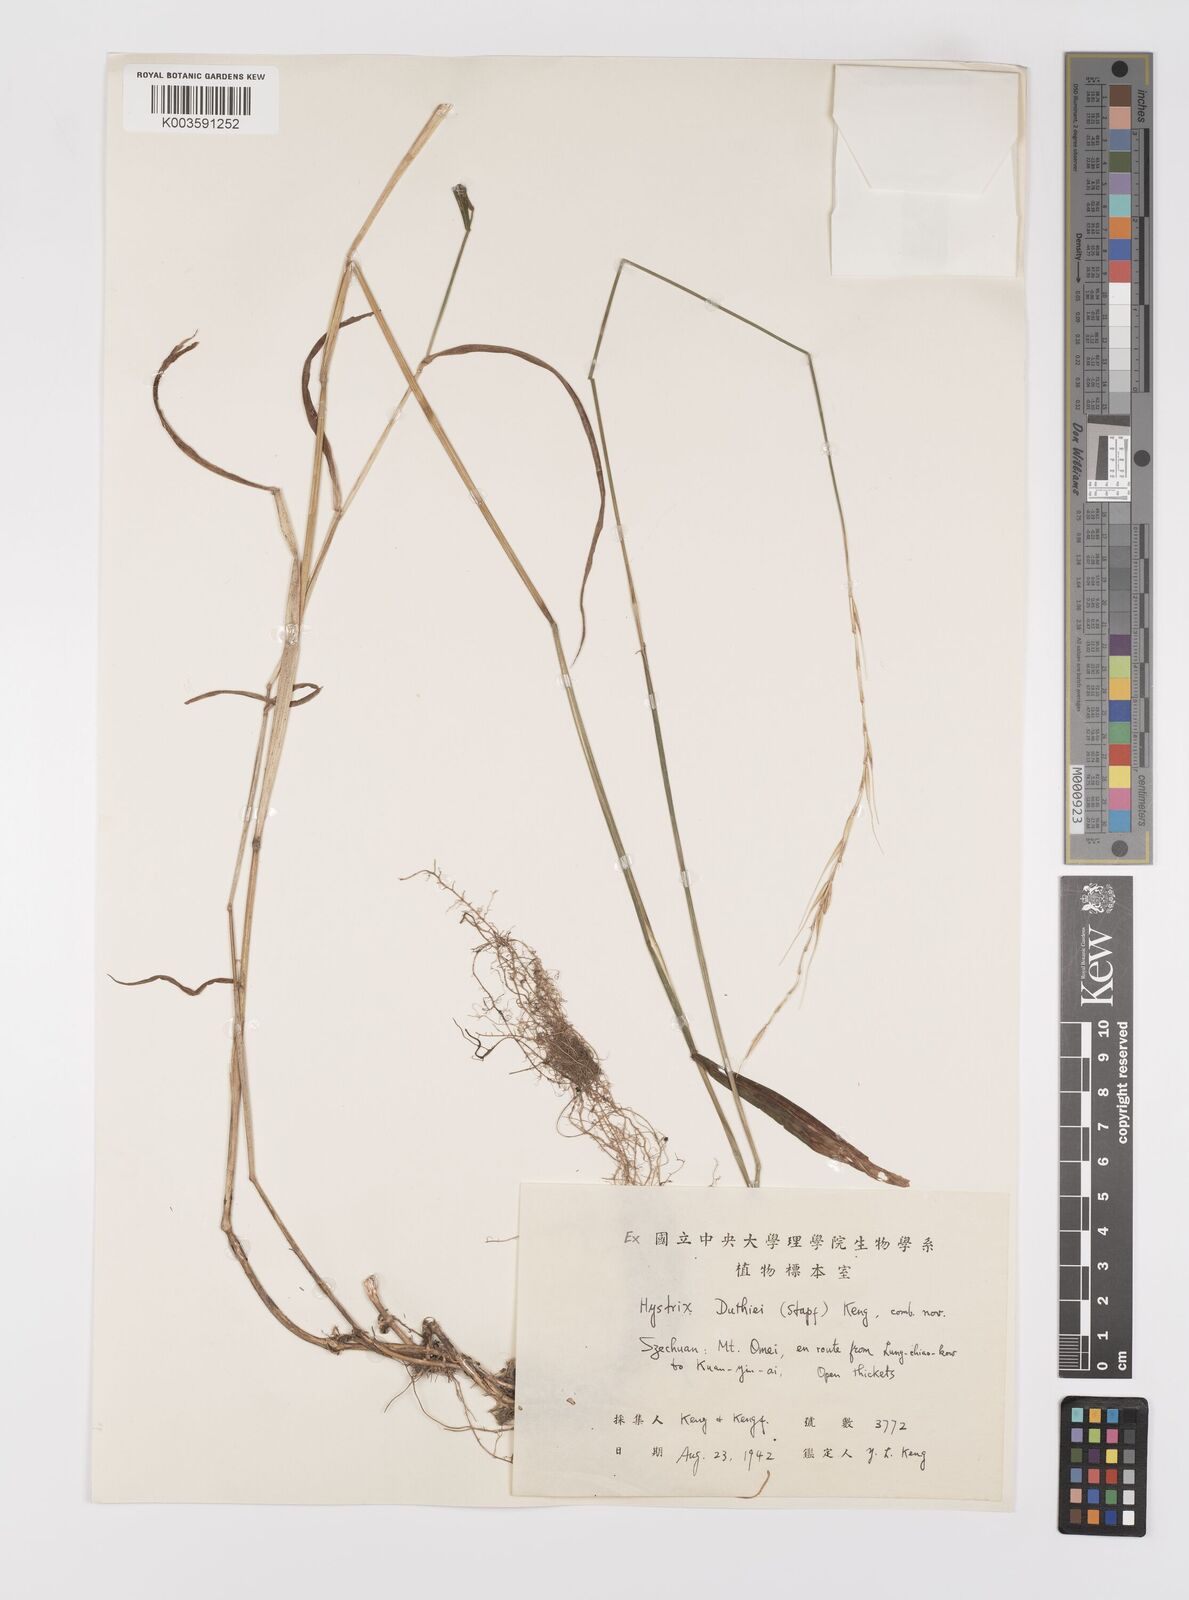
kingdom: Plantae
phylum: Tracheophyta
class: Liliopsida
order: Poales
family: Poaceae
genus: Leymus
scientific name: Leymus duthiei
